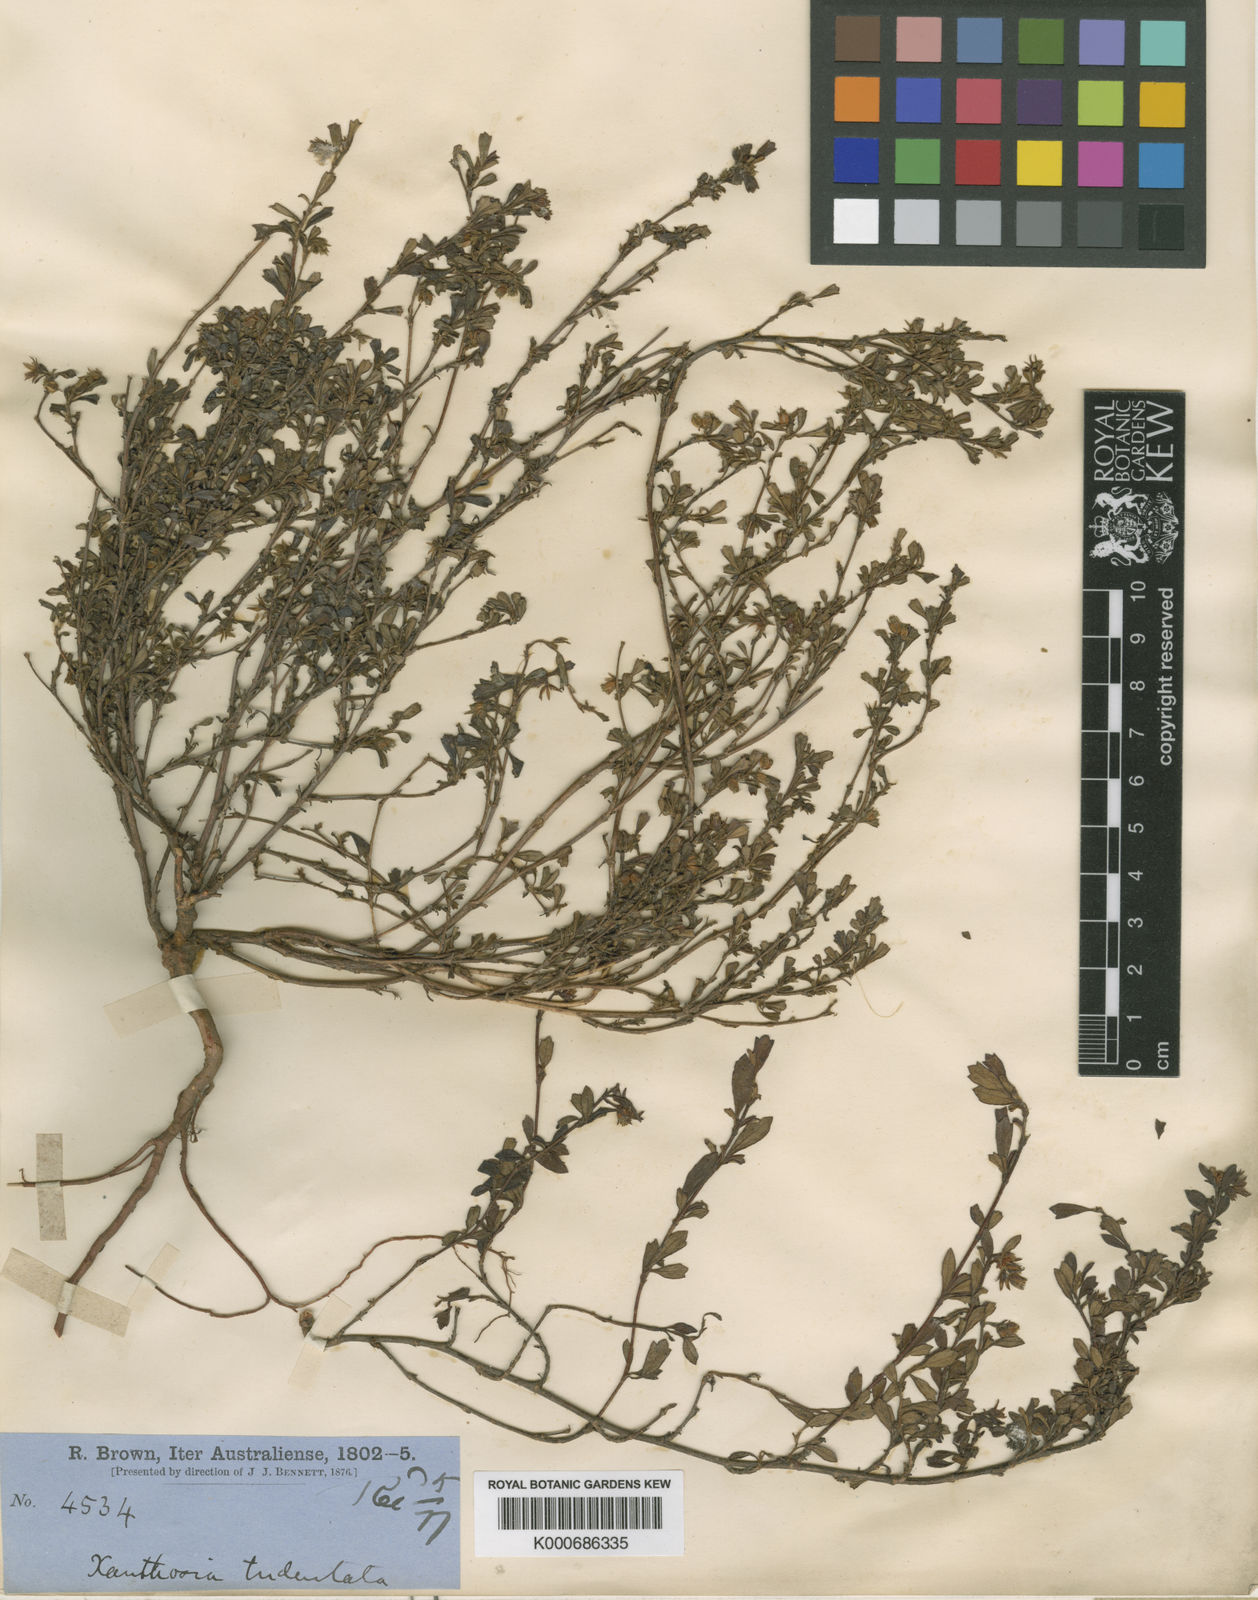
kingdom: Plantae
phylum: Tracheophyta
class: Magnoliopsida
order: Apiales
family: Apiaceae
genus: Xanthosia
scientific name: Xanthosia tridentata
